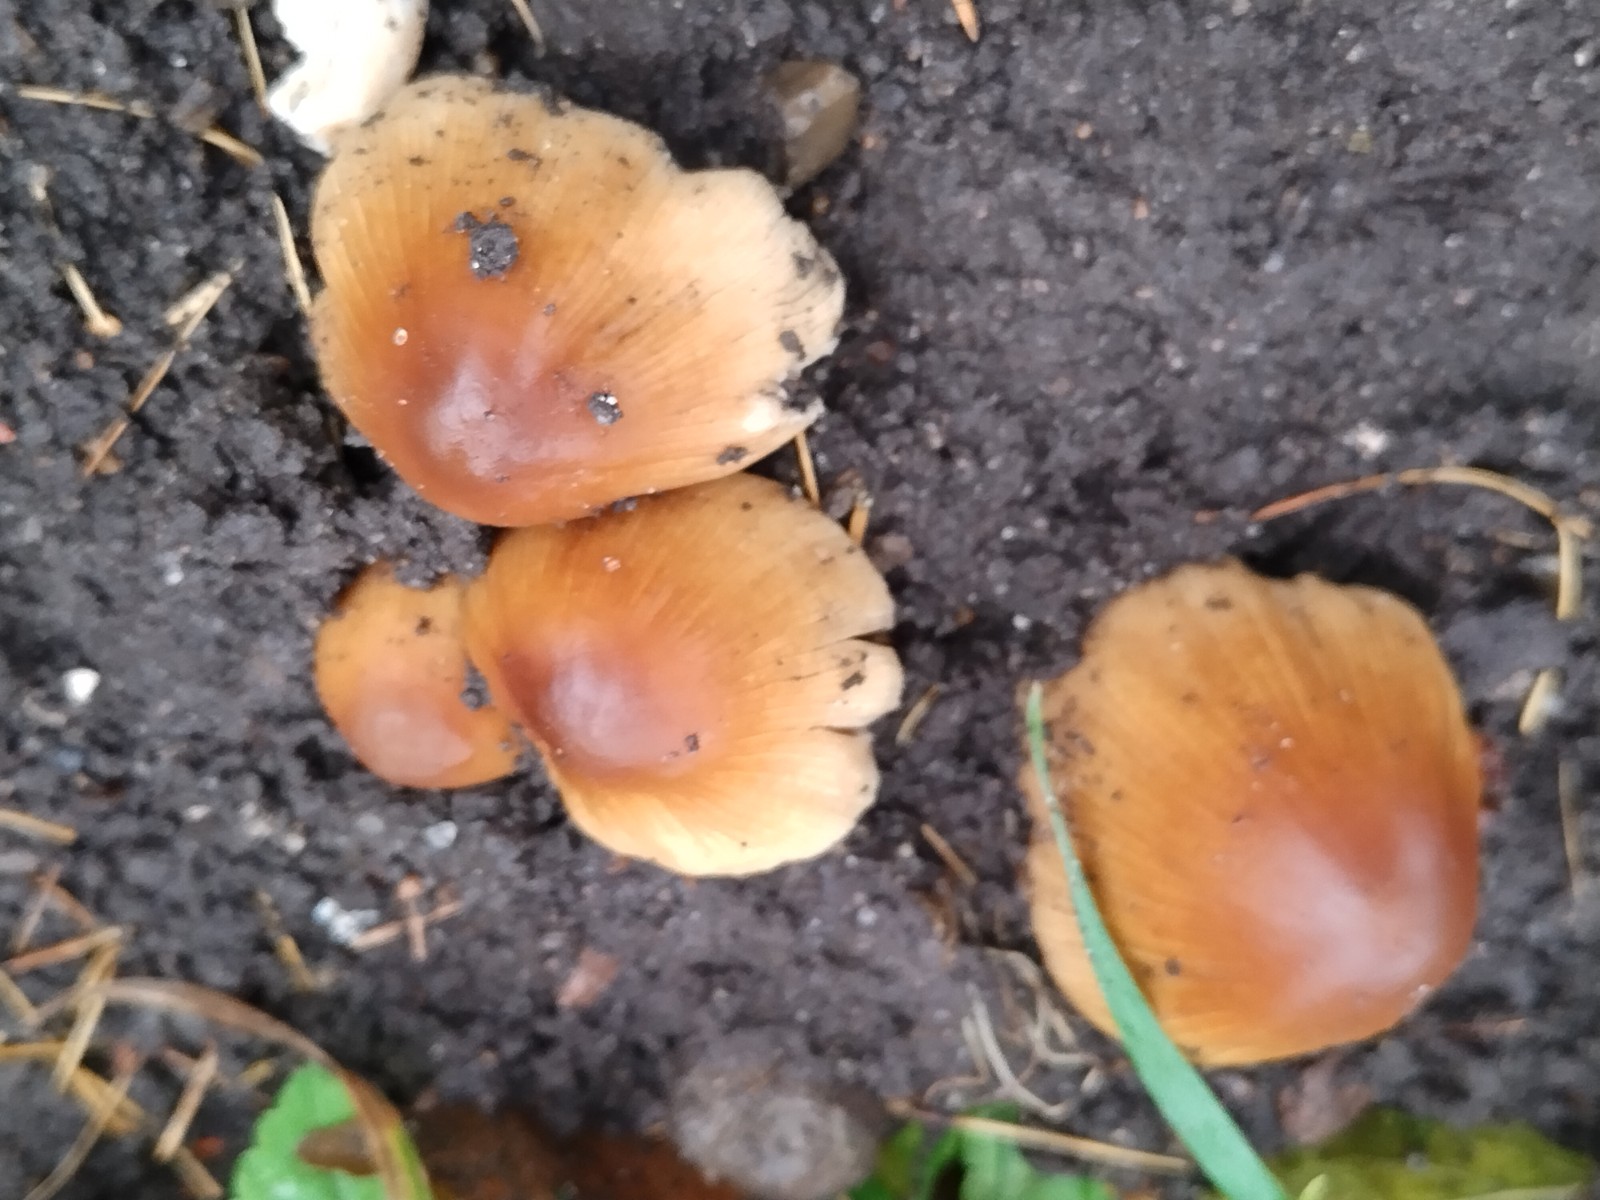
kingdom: Fungi
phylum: Basidiomycota
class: Agaricomycetes
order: Agaricales
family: Psathyrellaceae
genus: Coprinellus
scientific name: Coprinellus micaceus
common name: glimmer-blækhat
